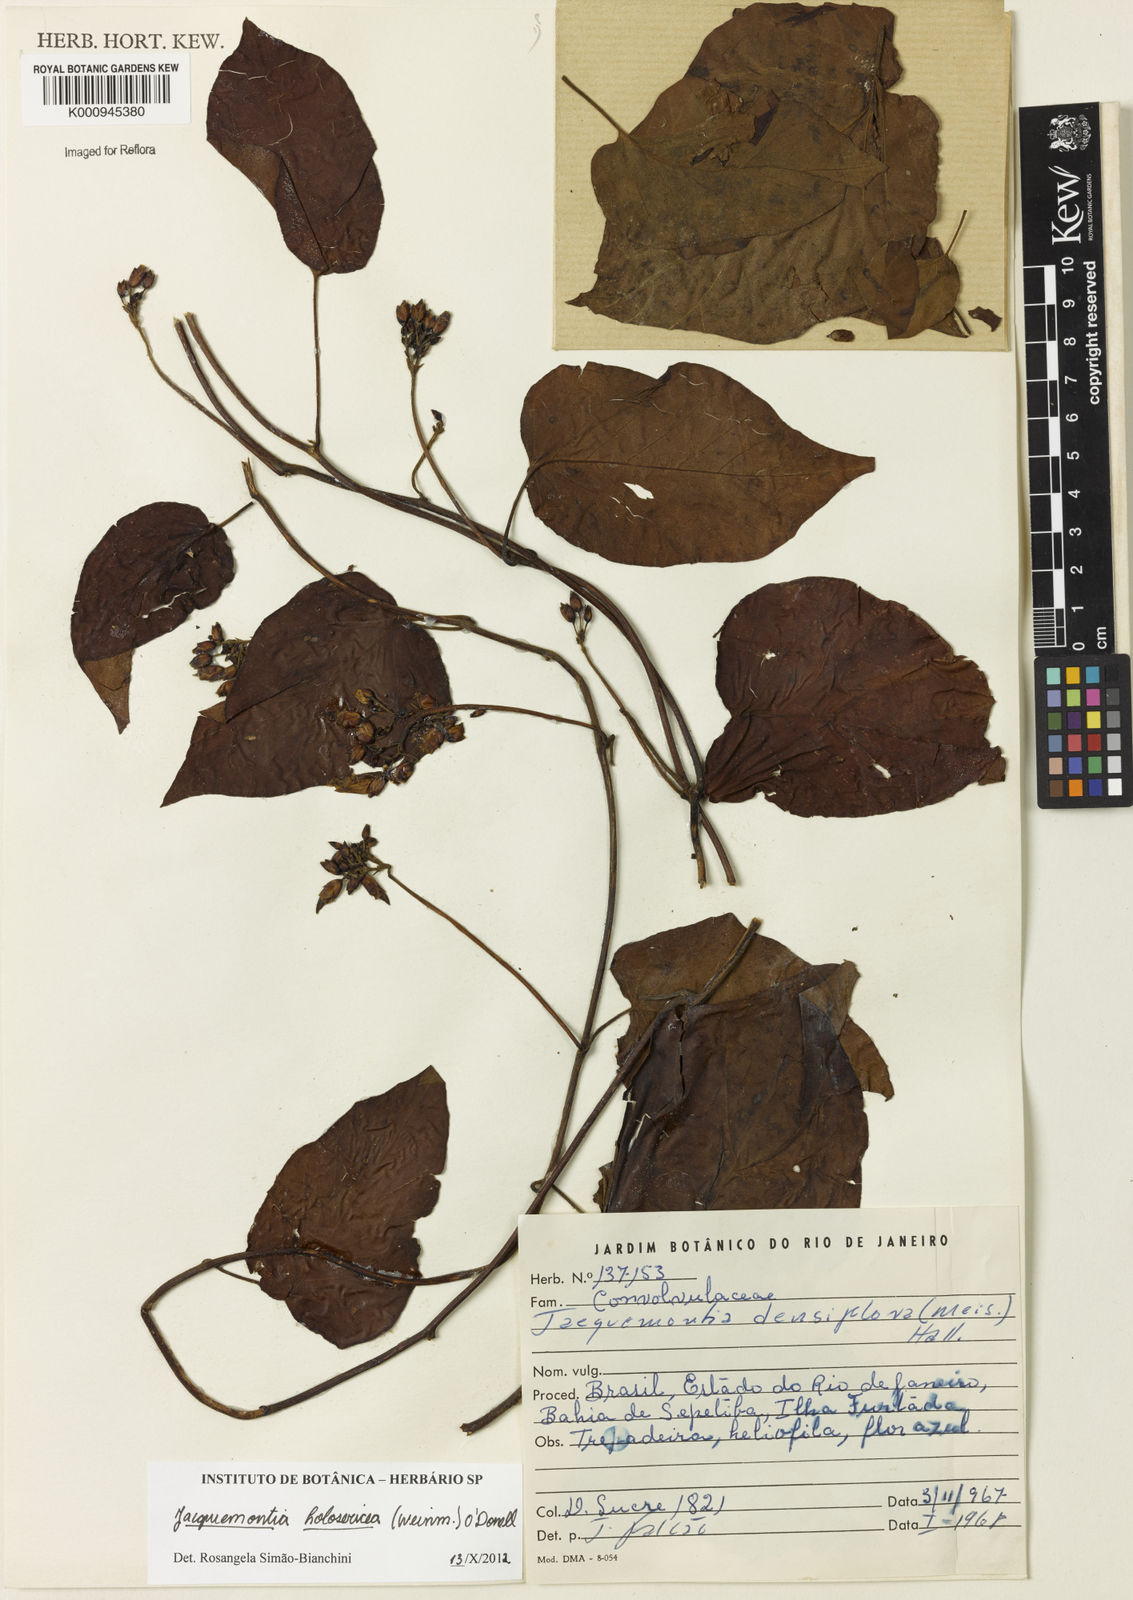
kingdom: Plantae
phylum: Tracheophyta
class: Magnoliopsida
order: Solanales
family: Convolvulaceae
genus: Jacquemontia
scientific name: Jacquemontia holosericea
